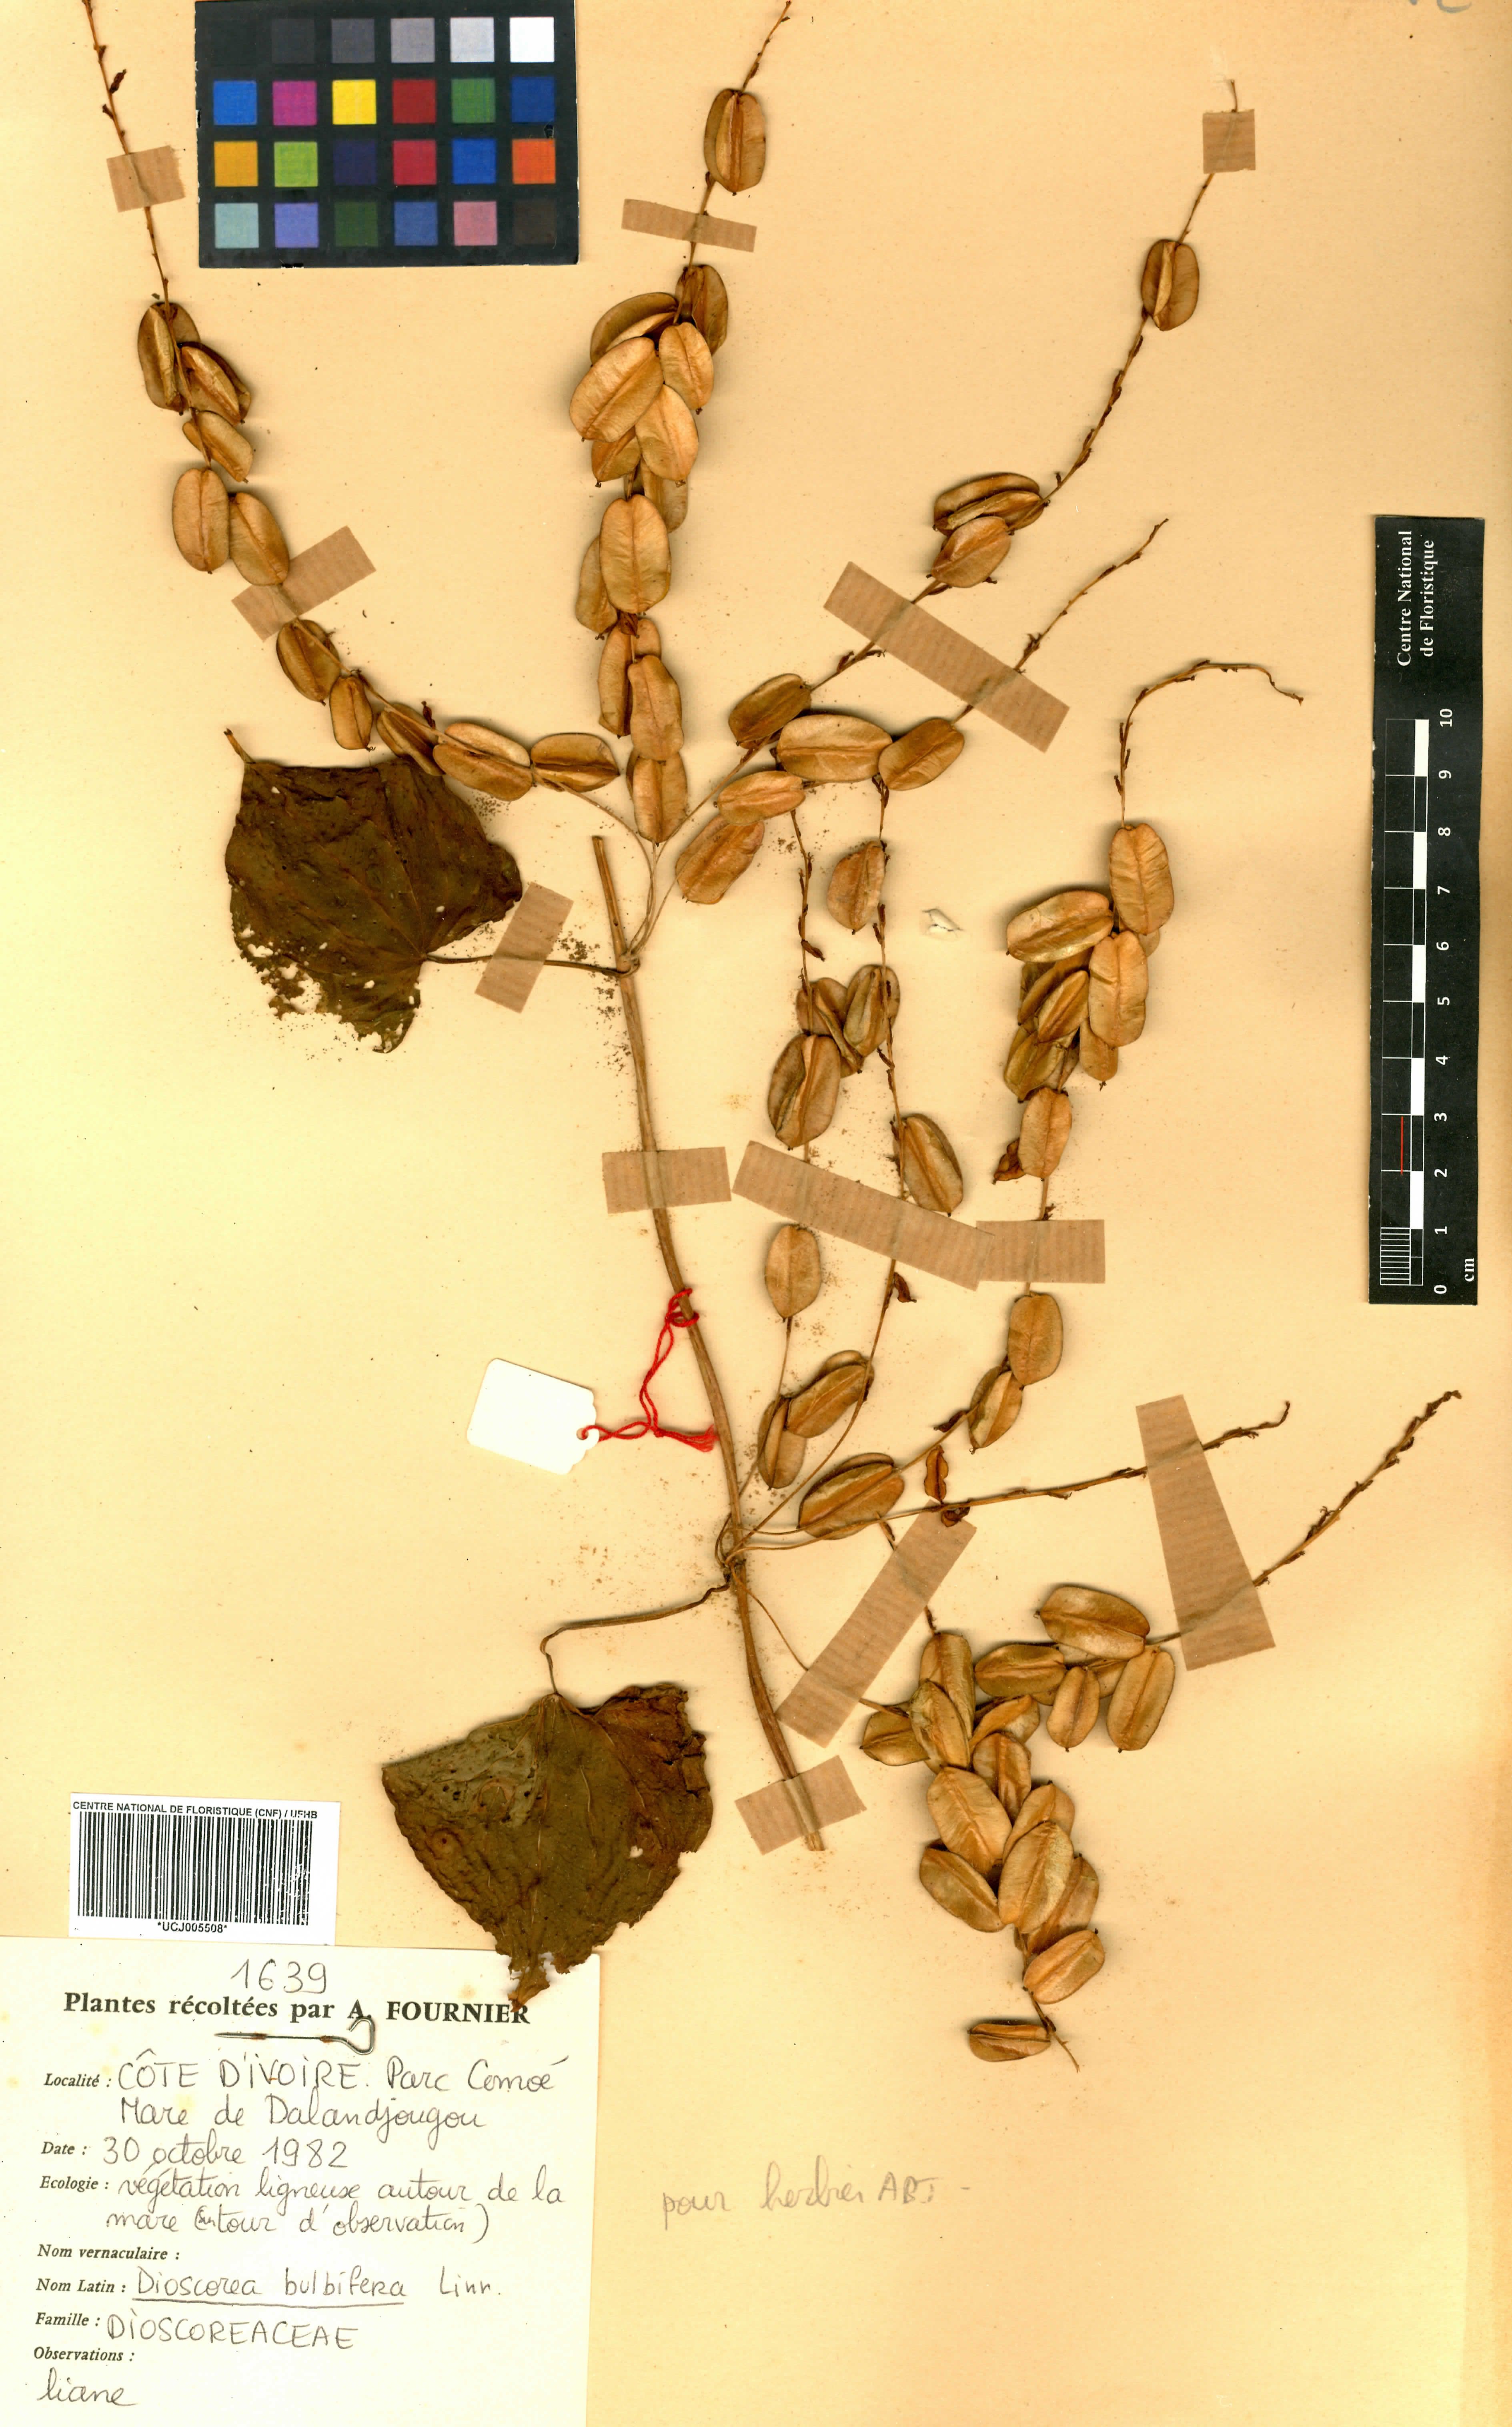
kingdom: Plantae
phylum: Tracheophyta
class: Liliopsida
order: Dioscoreales
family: Dioscoreaceae
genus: Dioscorea
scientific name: Dioscorea bulbifera
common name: Air yam
